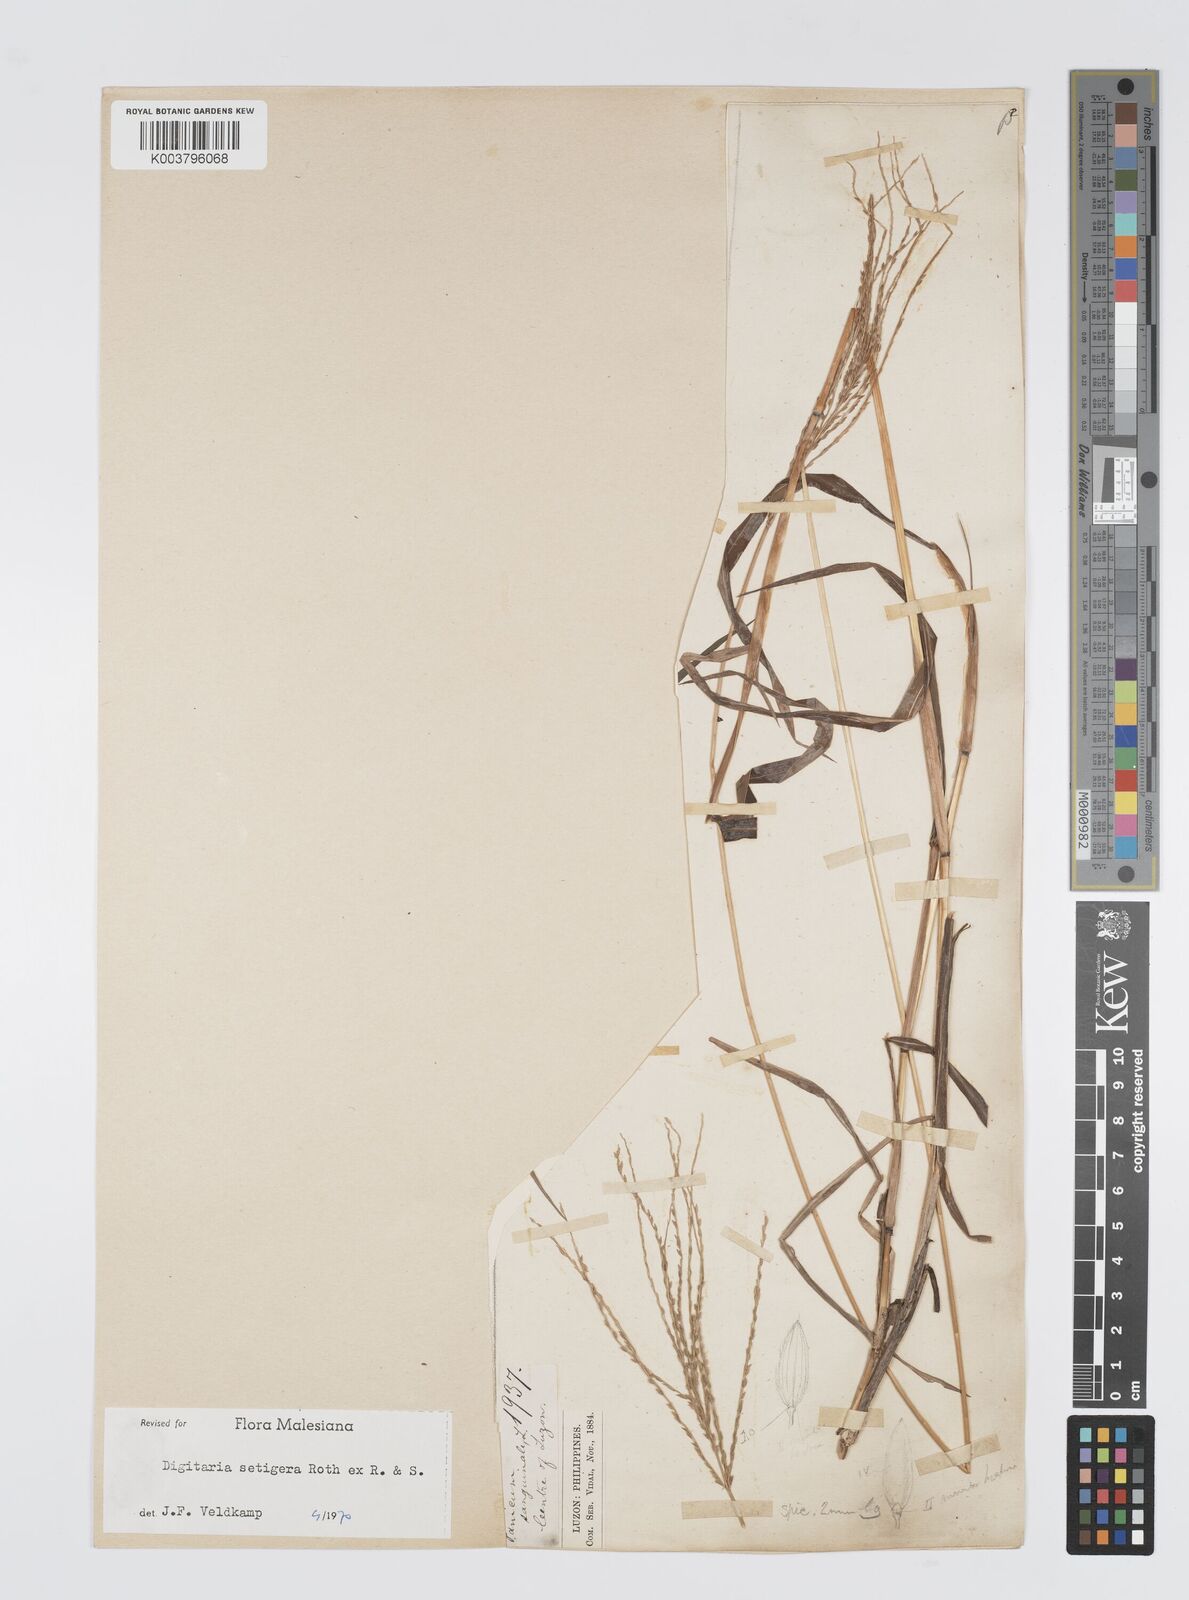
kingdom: Plantae
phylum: Tracheophyta
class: Liliopsida
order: Poales
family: Poaceae
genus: Digitaria
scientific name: Digitaria setigera
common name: East indian crabgrass
